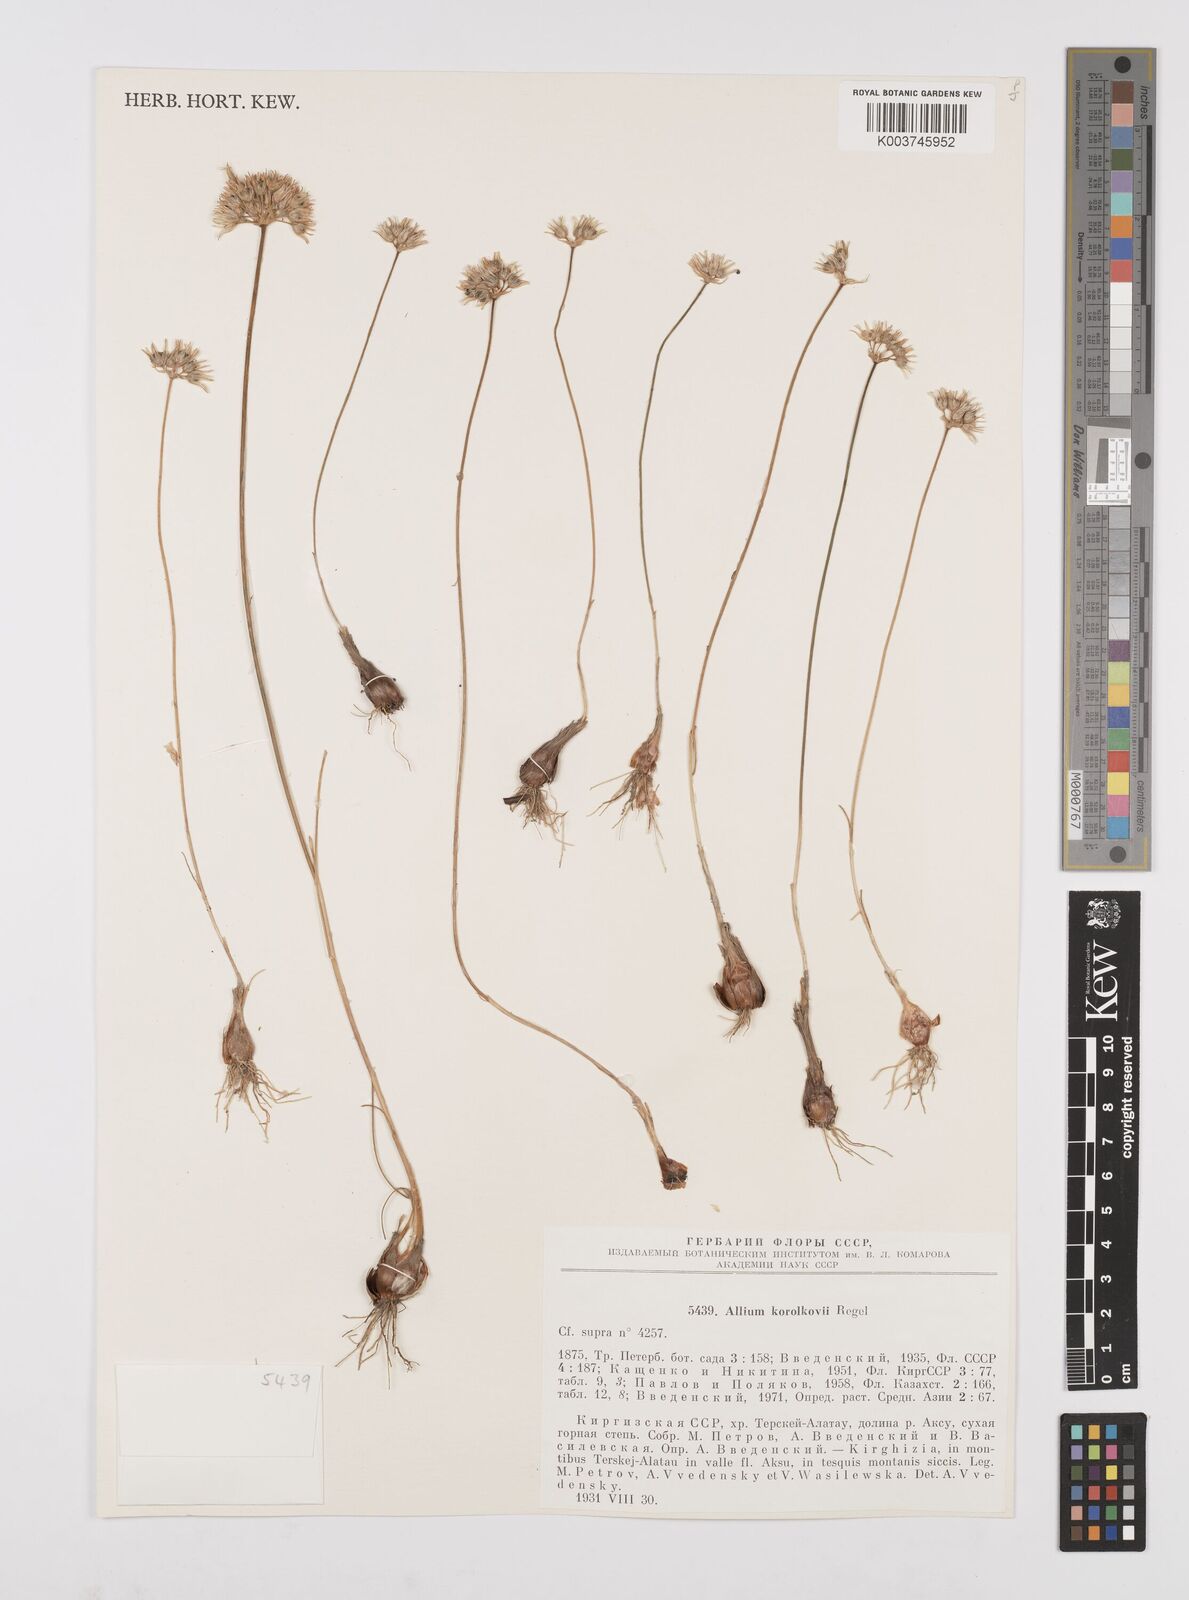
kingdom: Plantae
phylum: Tracheophyta
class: Liliopsida
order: Asparagales
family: Amaryllidaceae
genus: Allium
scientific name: Allium korolkowii
